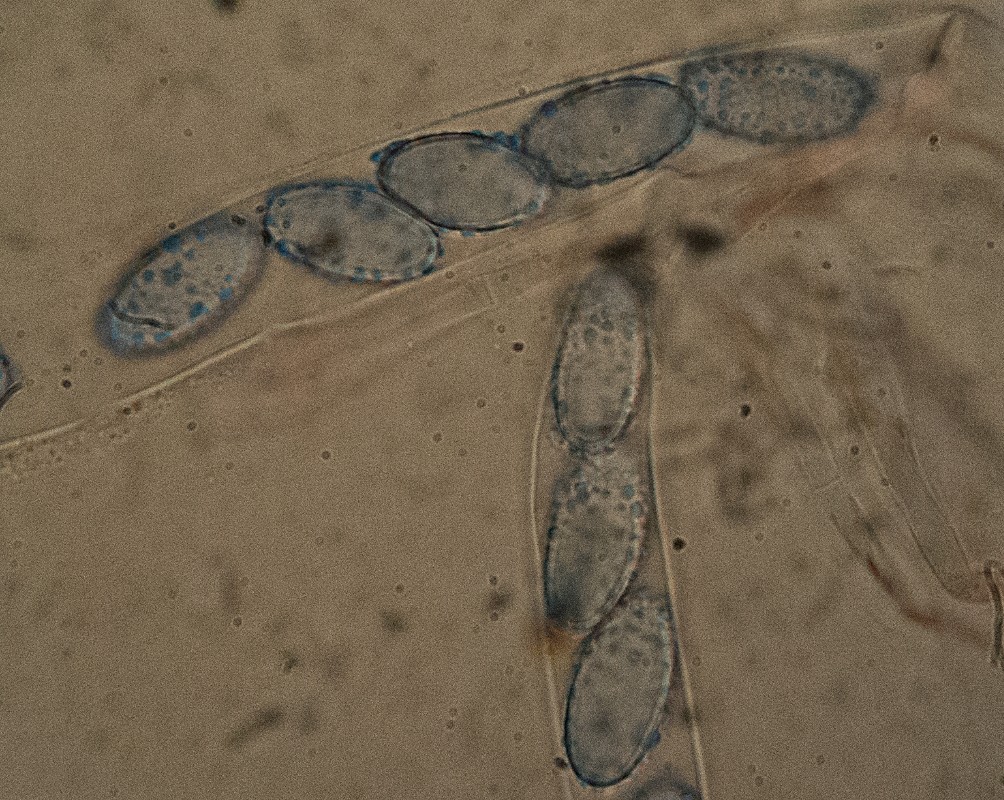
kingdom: Fungi
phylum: Ascomycota
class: Pezizomycetes
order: Pezizales
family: Pyronemataceae
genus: Scutellinia
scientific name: Scutellinia hirta
